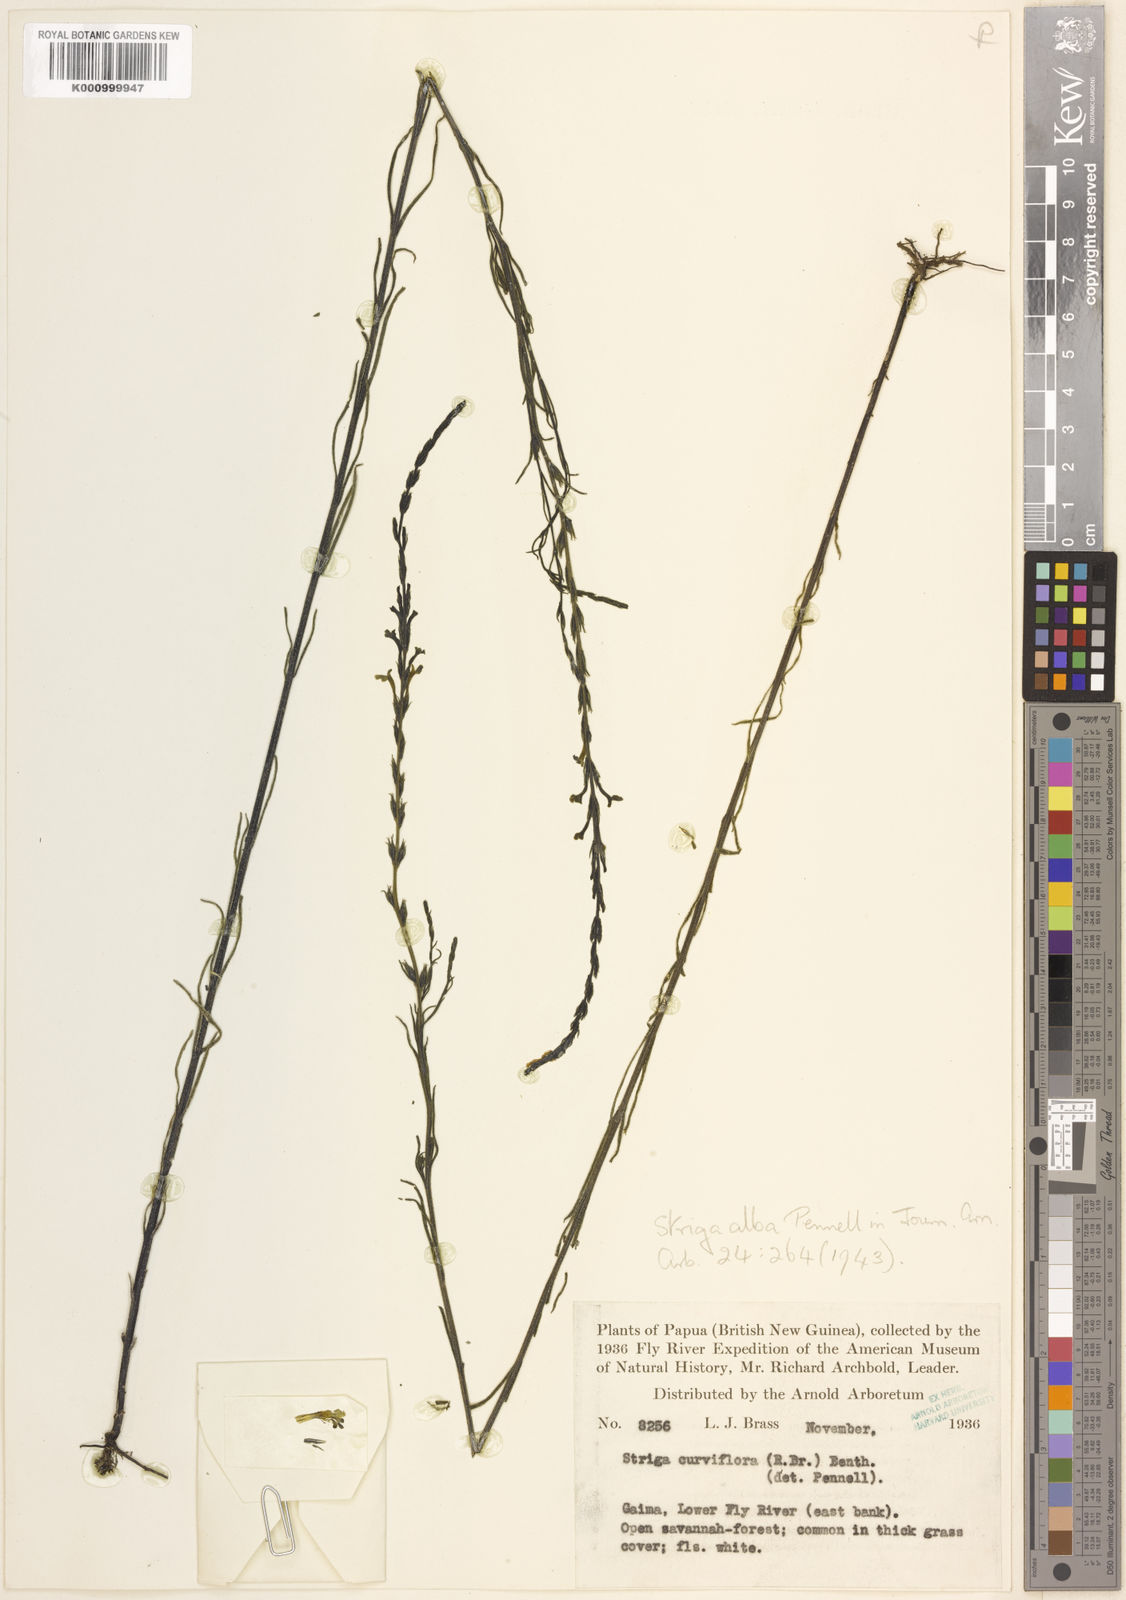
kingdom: Plantae
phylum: Tracheophyta
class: Magnoliopsida
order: Lamiales
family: Orobanchaceae
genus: Striga
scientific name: Striga alba
